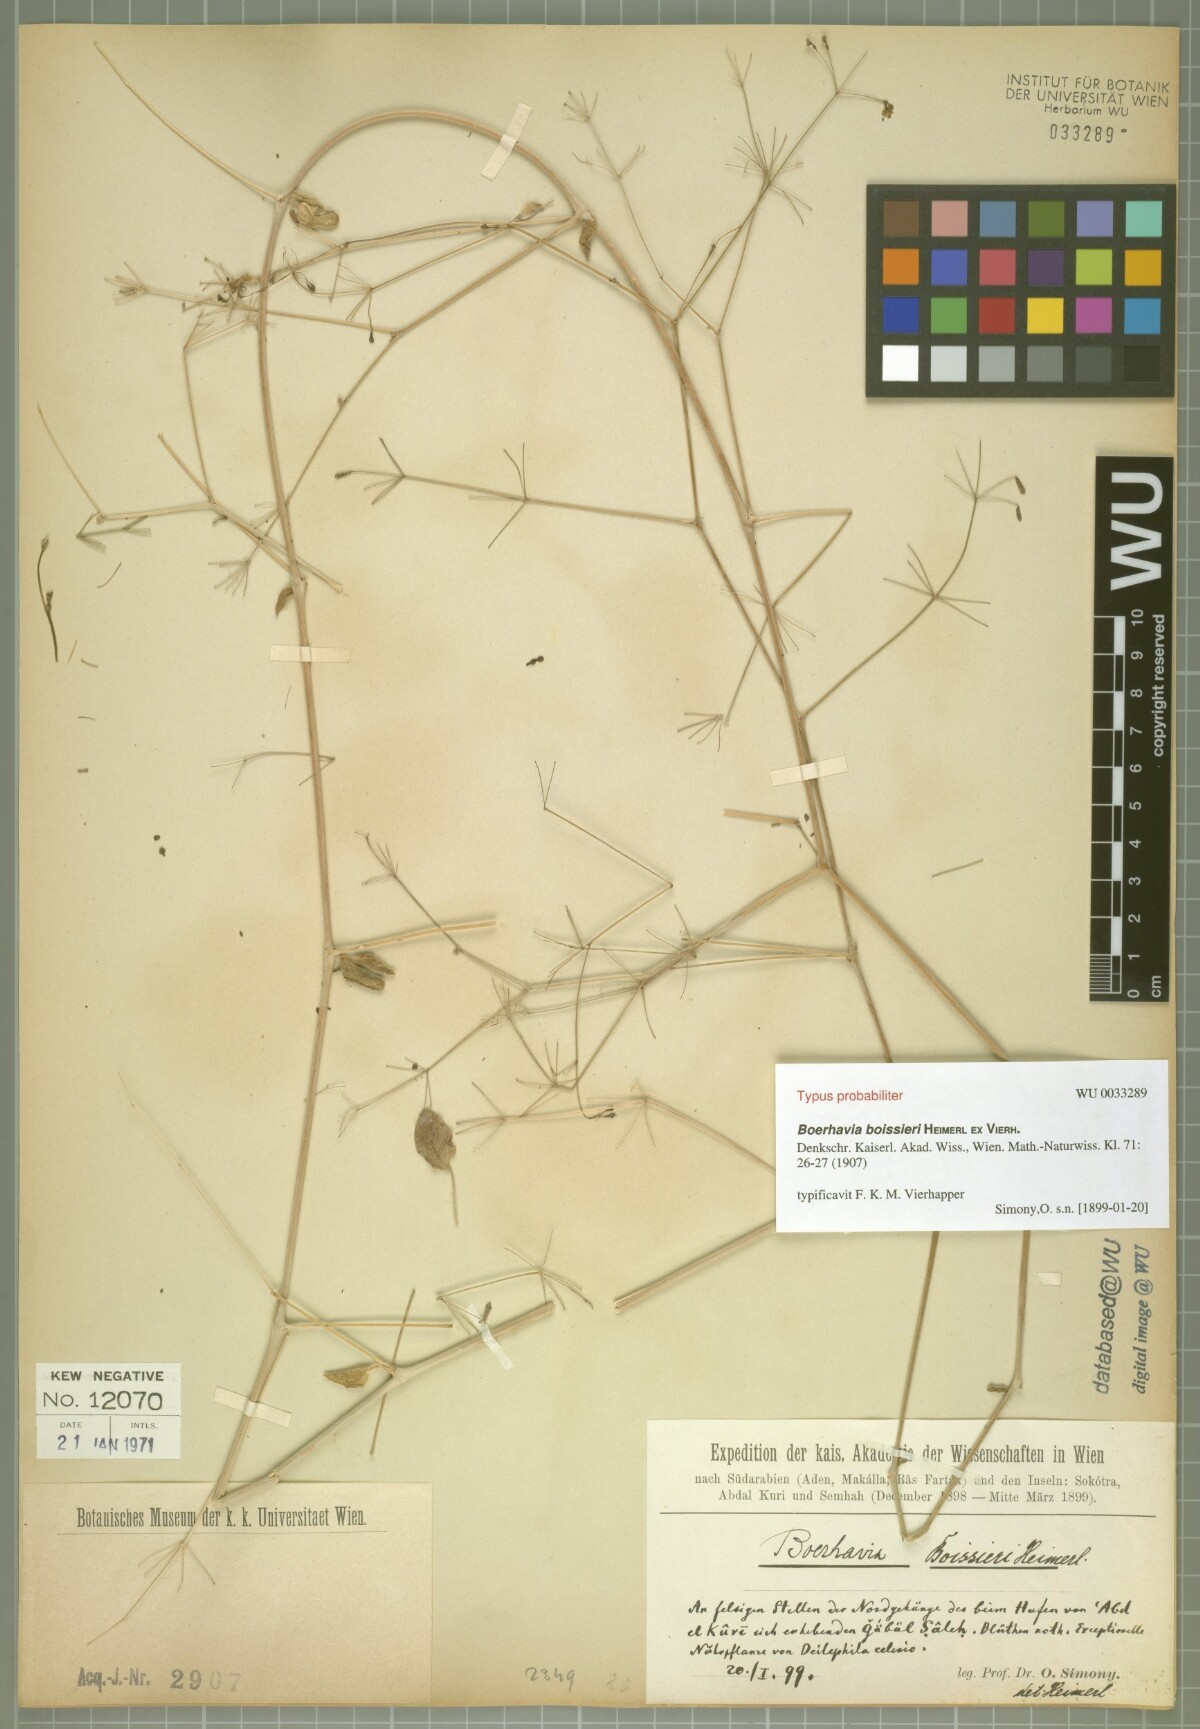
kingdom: Plantae
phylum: Tracheophyta
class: Magnoliopsida
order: Caryophyllales
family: Nyctaginaceae
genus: Commicarpus
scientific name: Commicarpus boissieri
